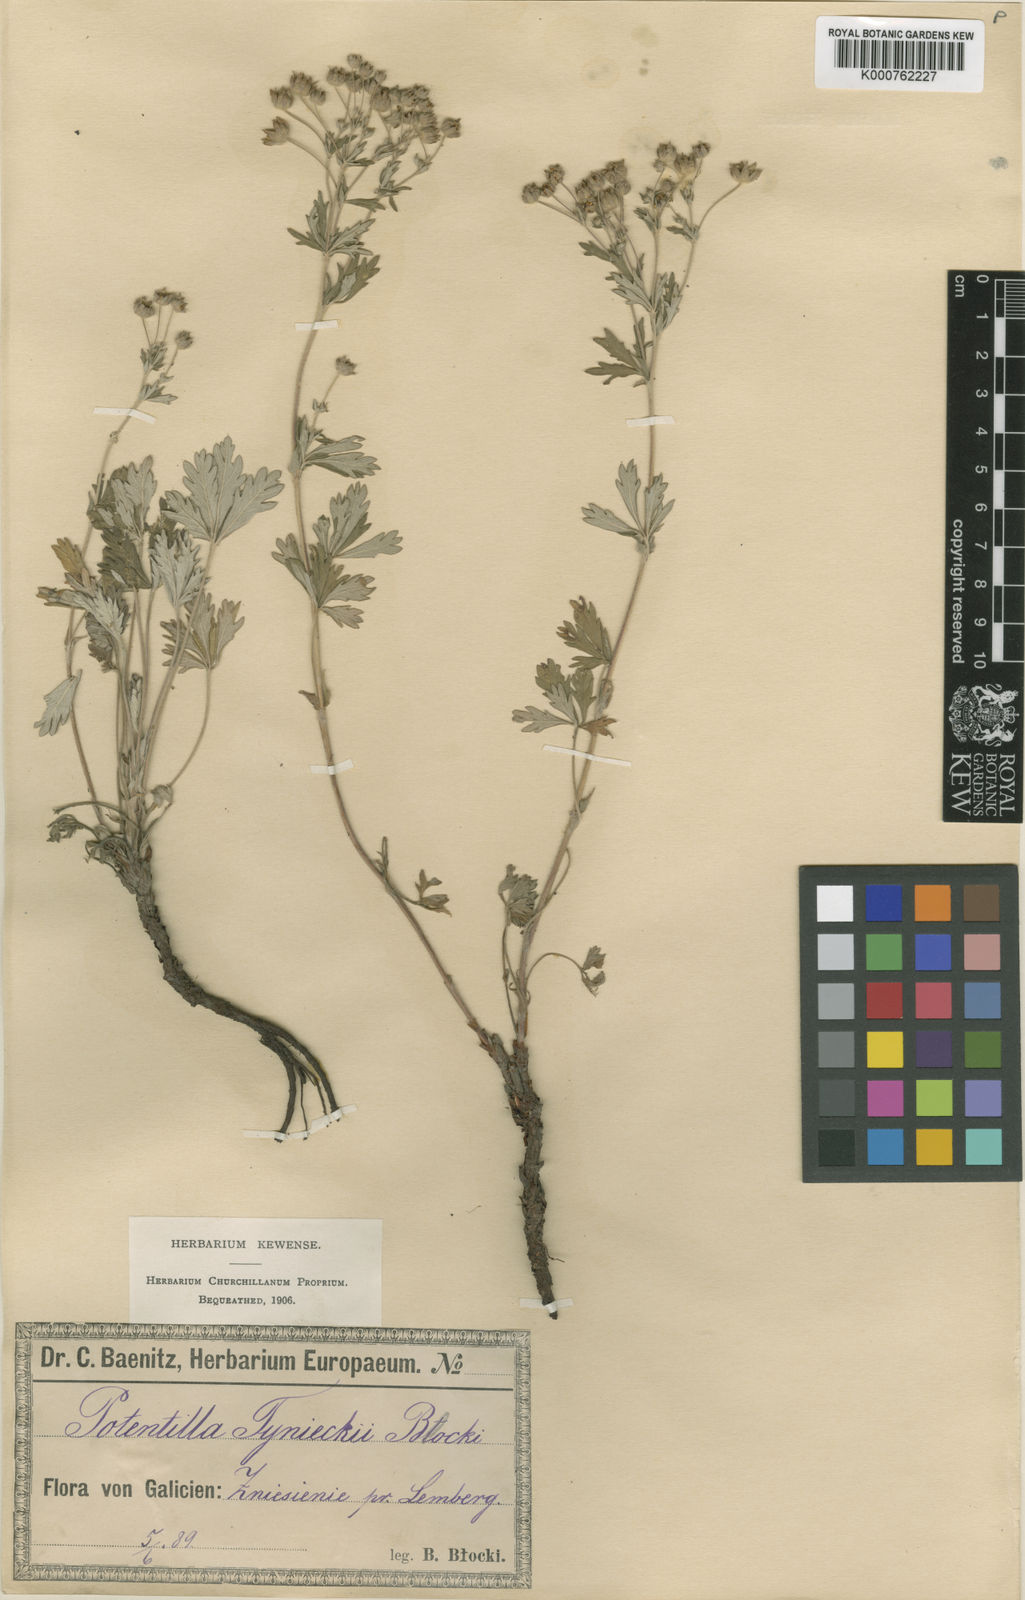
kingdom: Plantae
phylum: Tracheophyta
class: Magnoliopsida
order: Rosales
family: Rosaceae
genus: Potentilla
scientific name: Potentilla argentea
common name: Hoary cinquefoil
